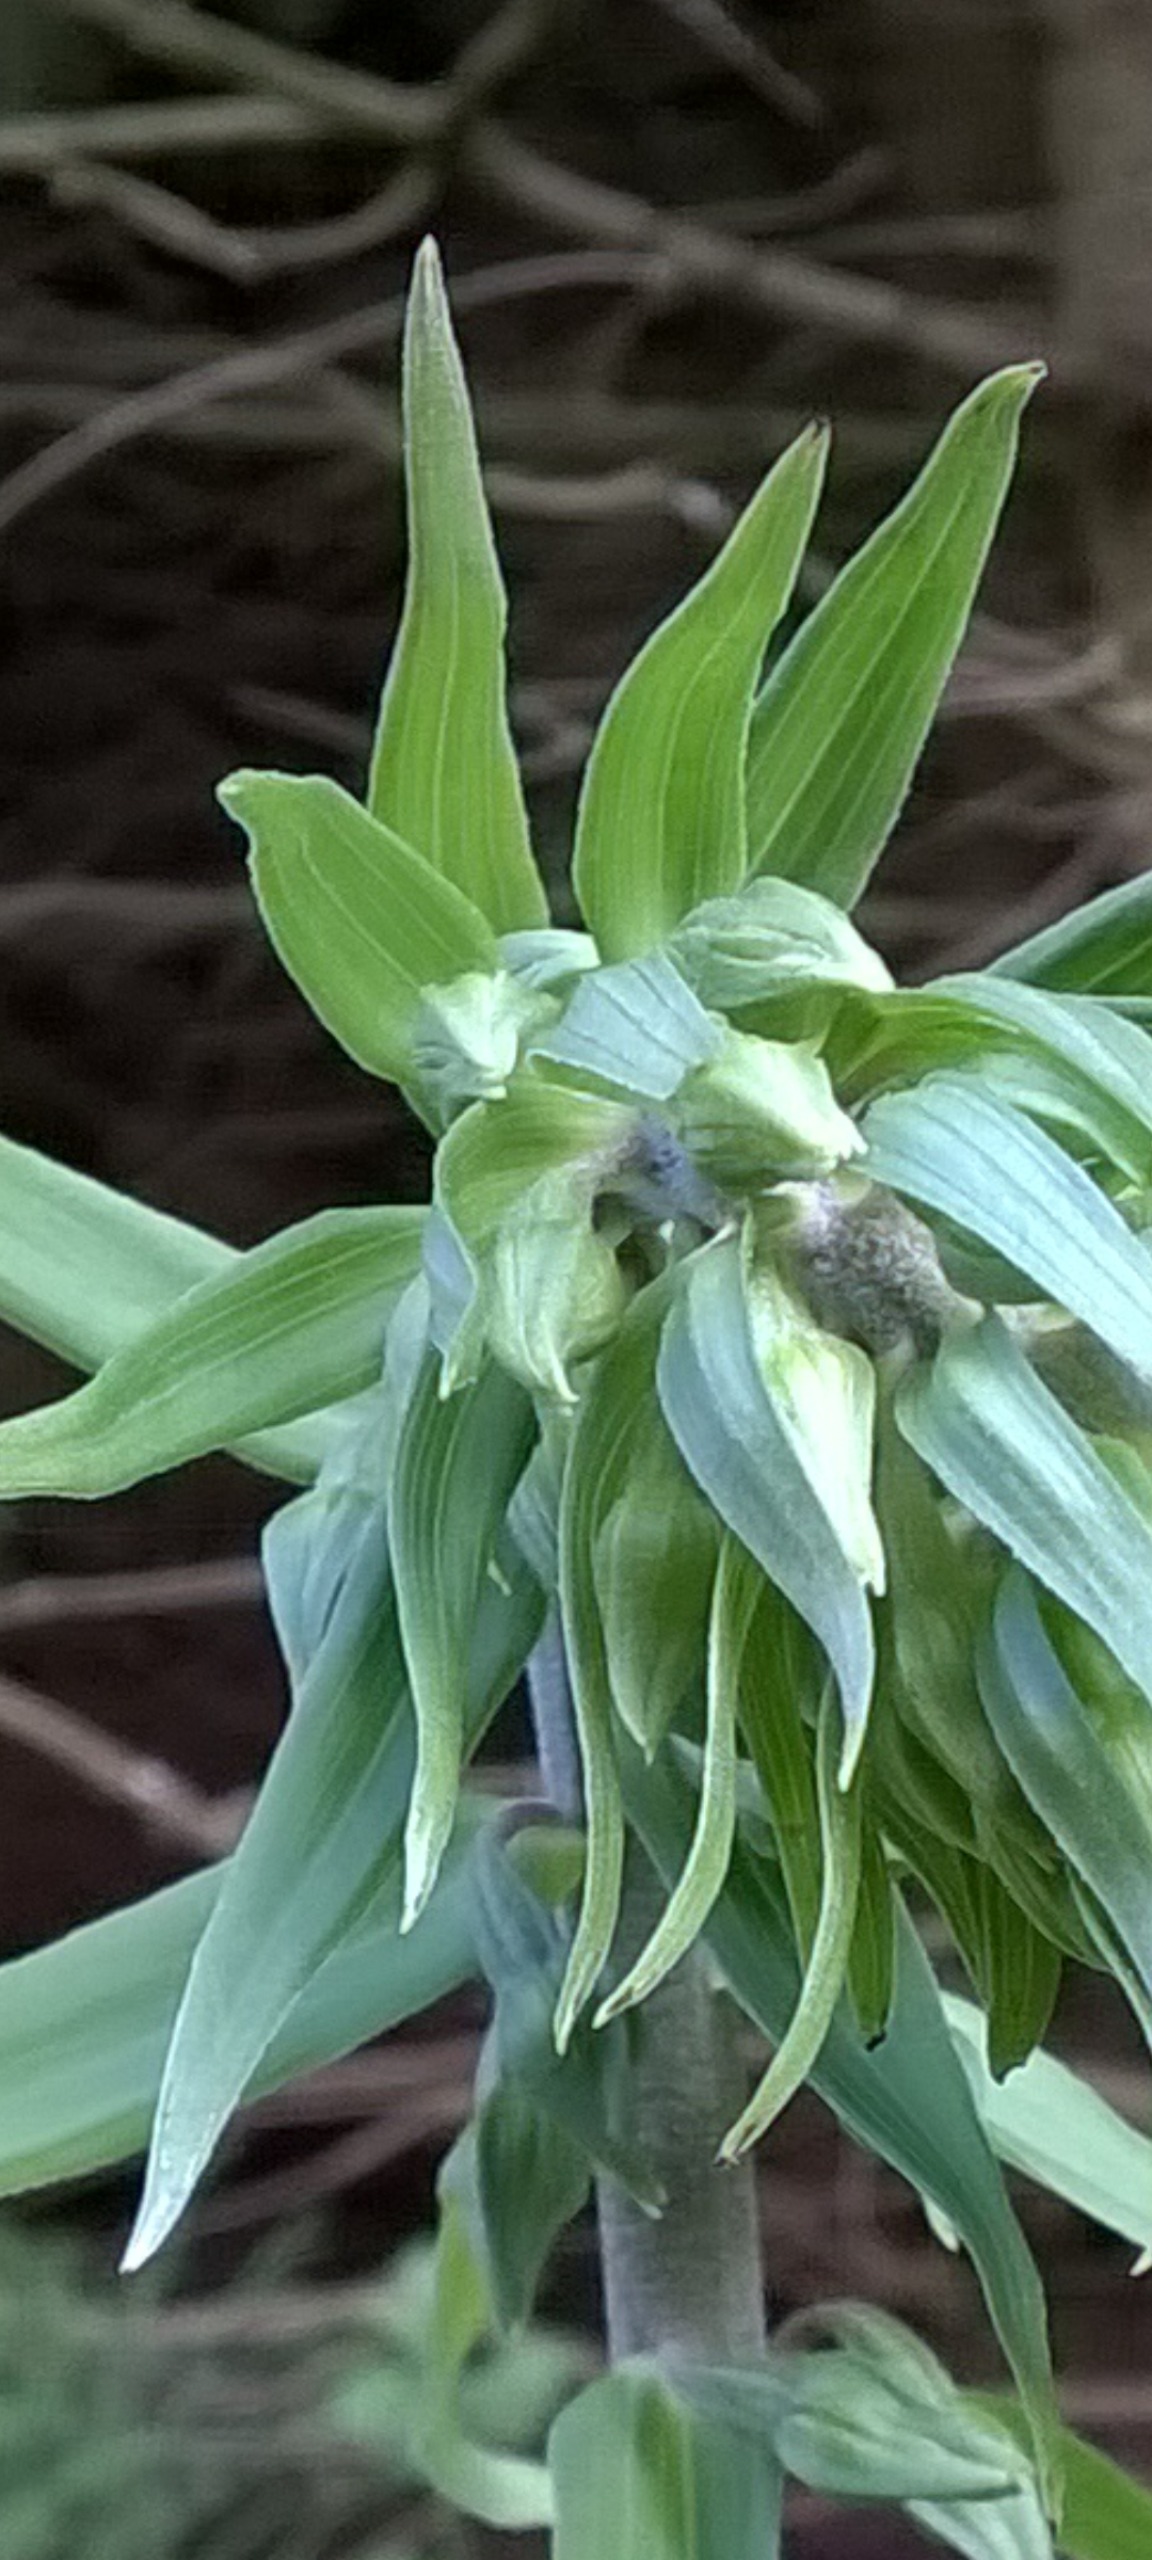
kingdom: Plantae
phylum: Tracheophyta
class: Liliopsida
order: Asparagales
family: Orchidaceae
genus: Epipactis
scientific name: Epipactis helleborine
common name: Skov-hullæbe
